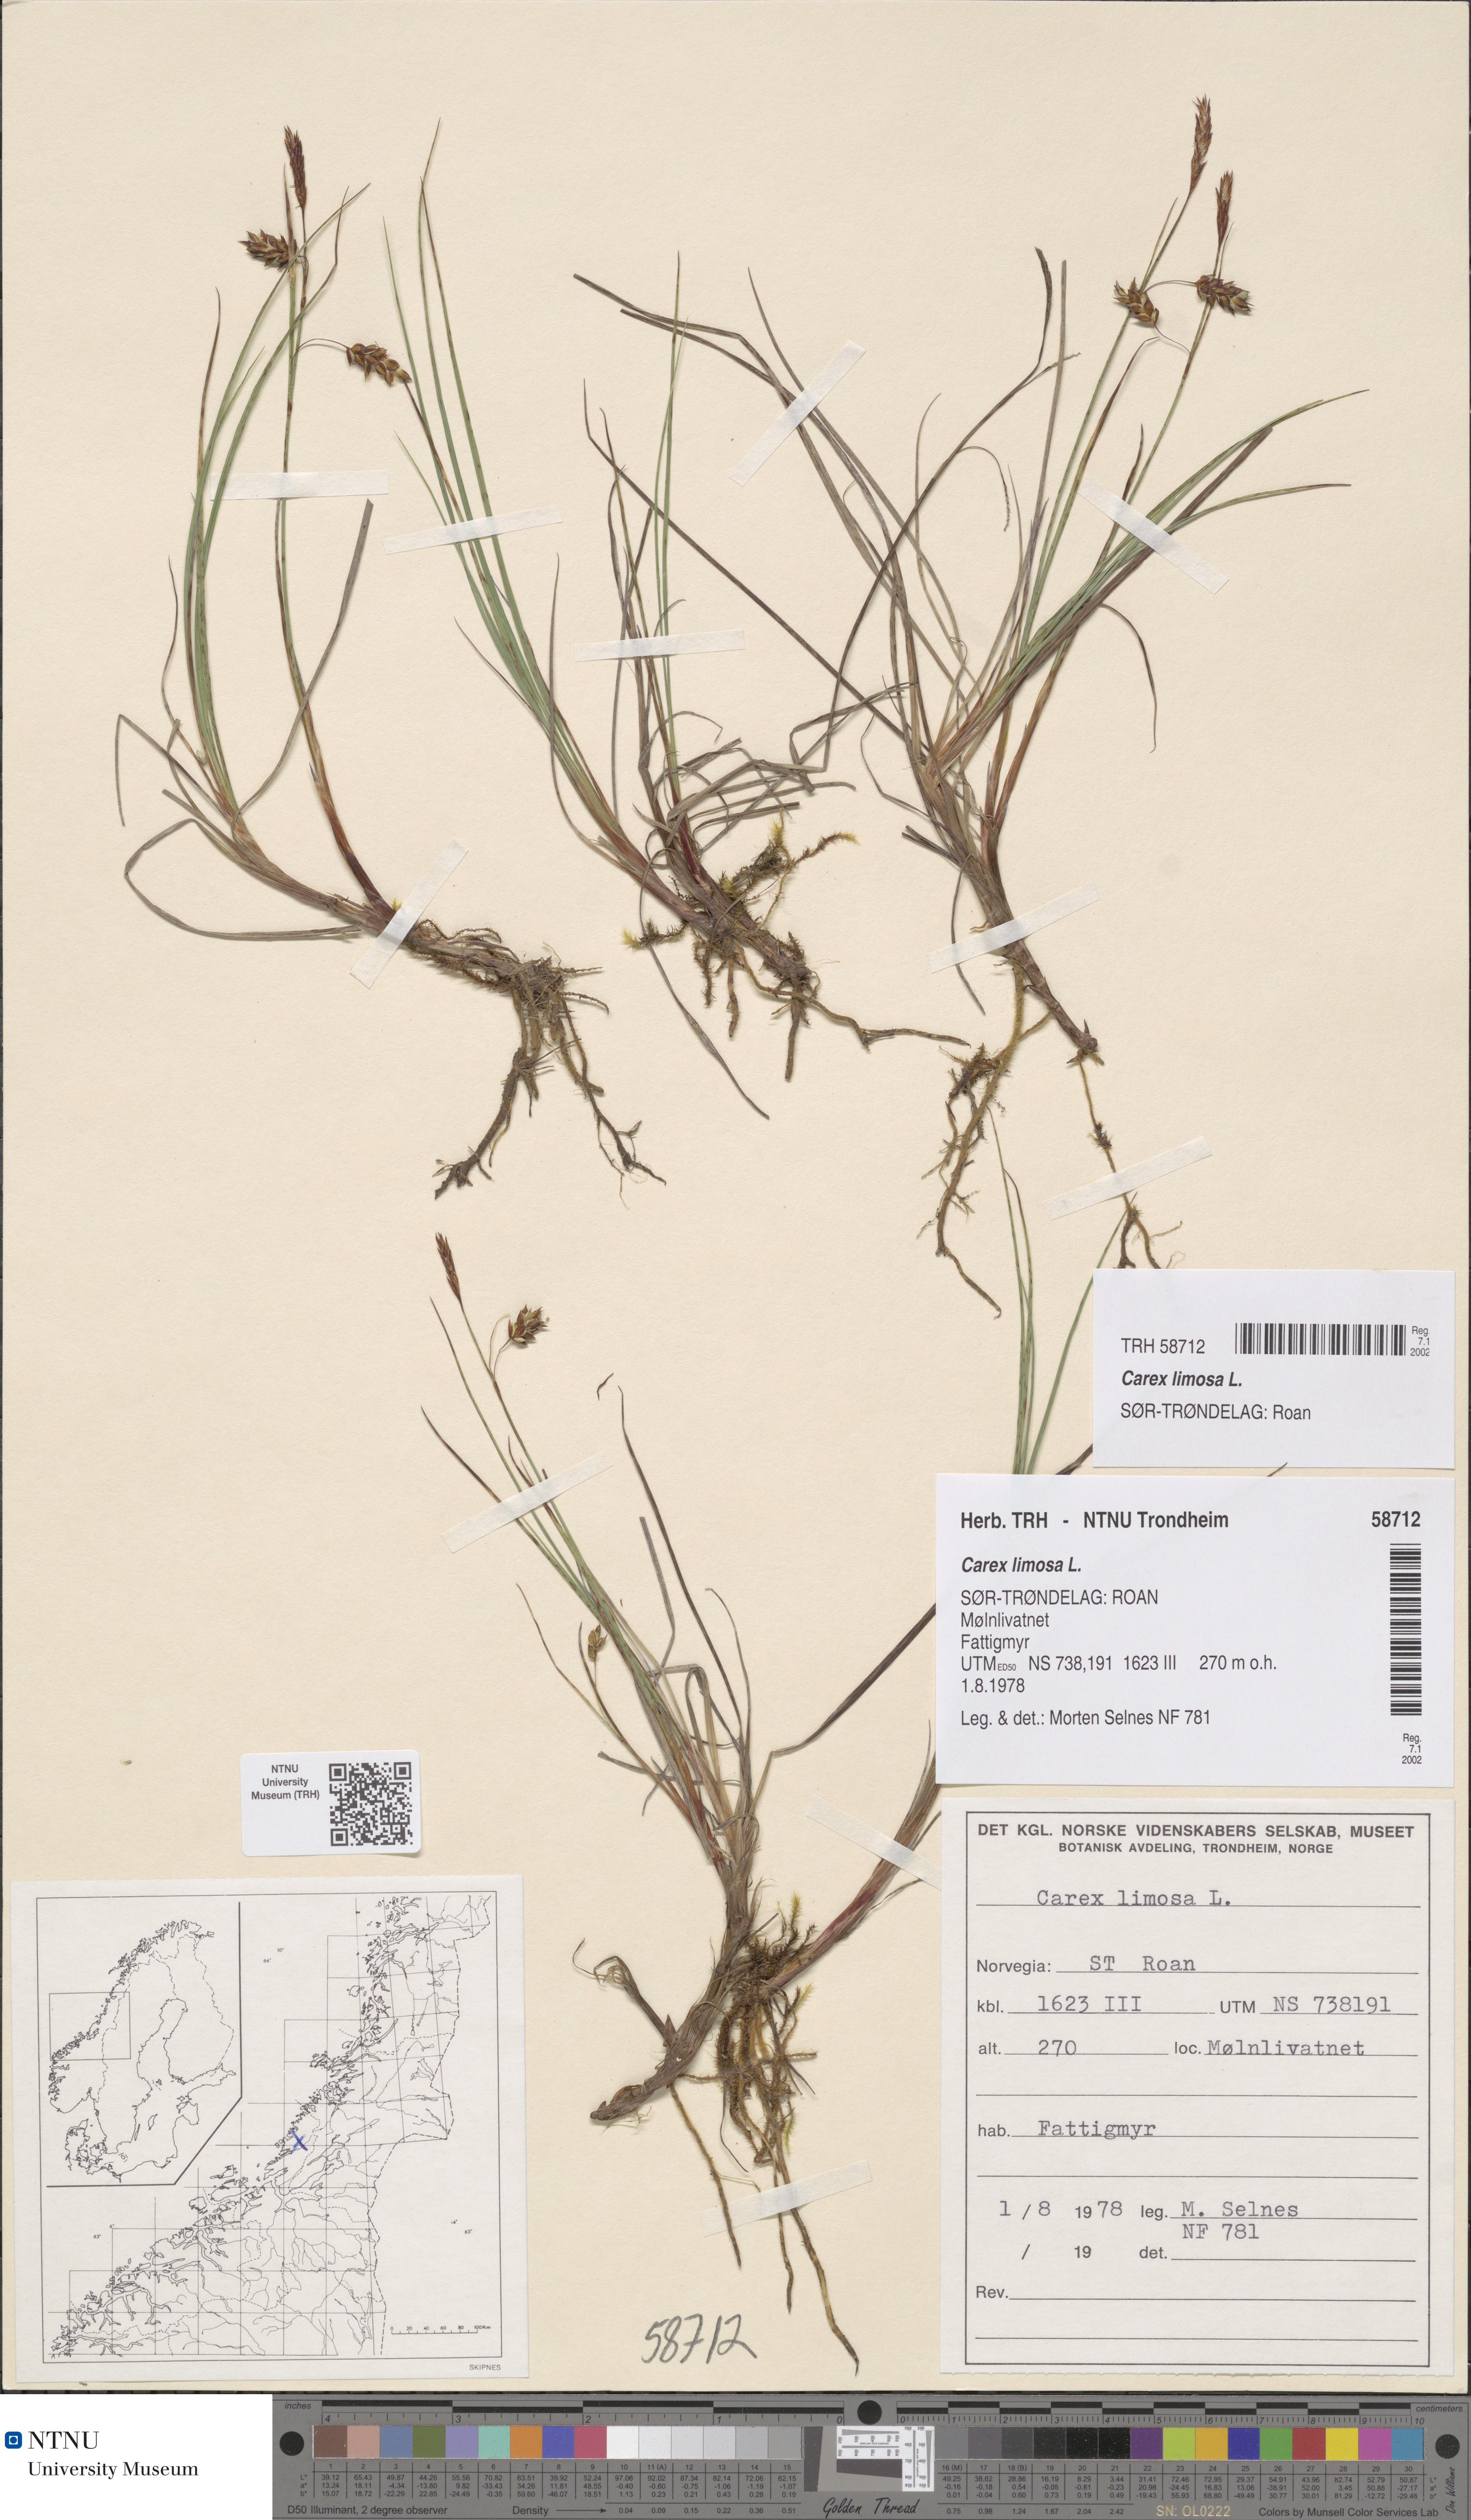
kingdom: Plantae
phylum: Tracheophyta
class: Liliopsida
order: Poales
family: Cyperaceae
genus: Carex
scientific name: Carex limosa
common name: Bog sedge
